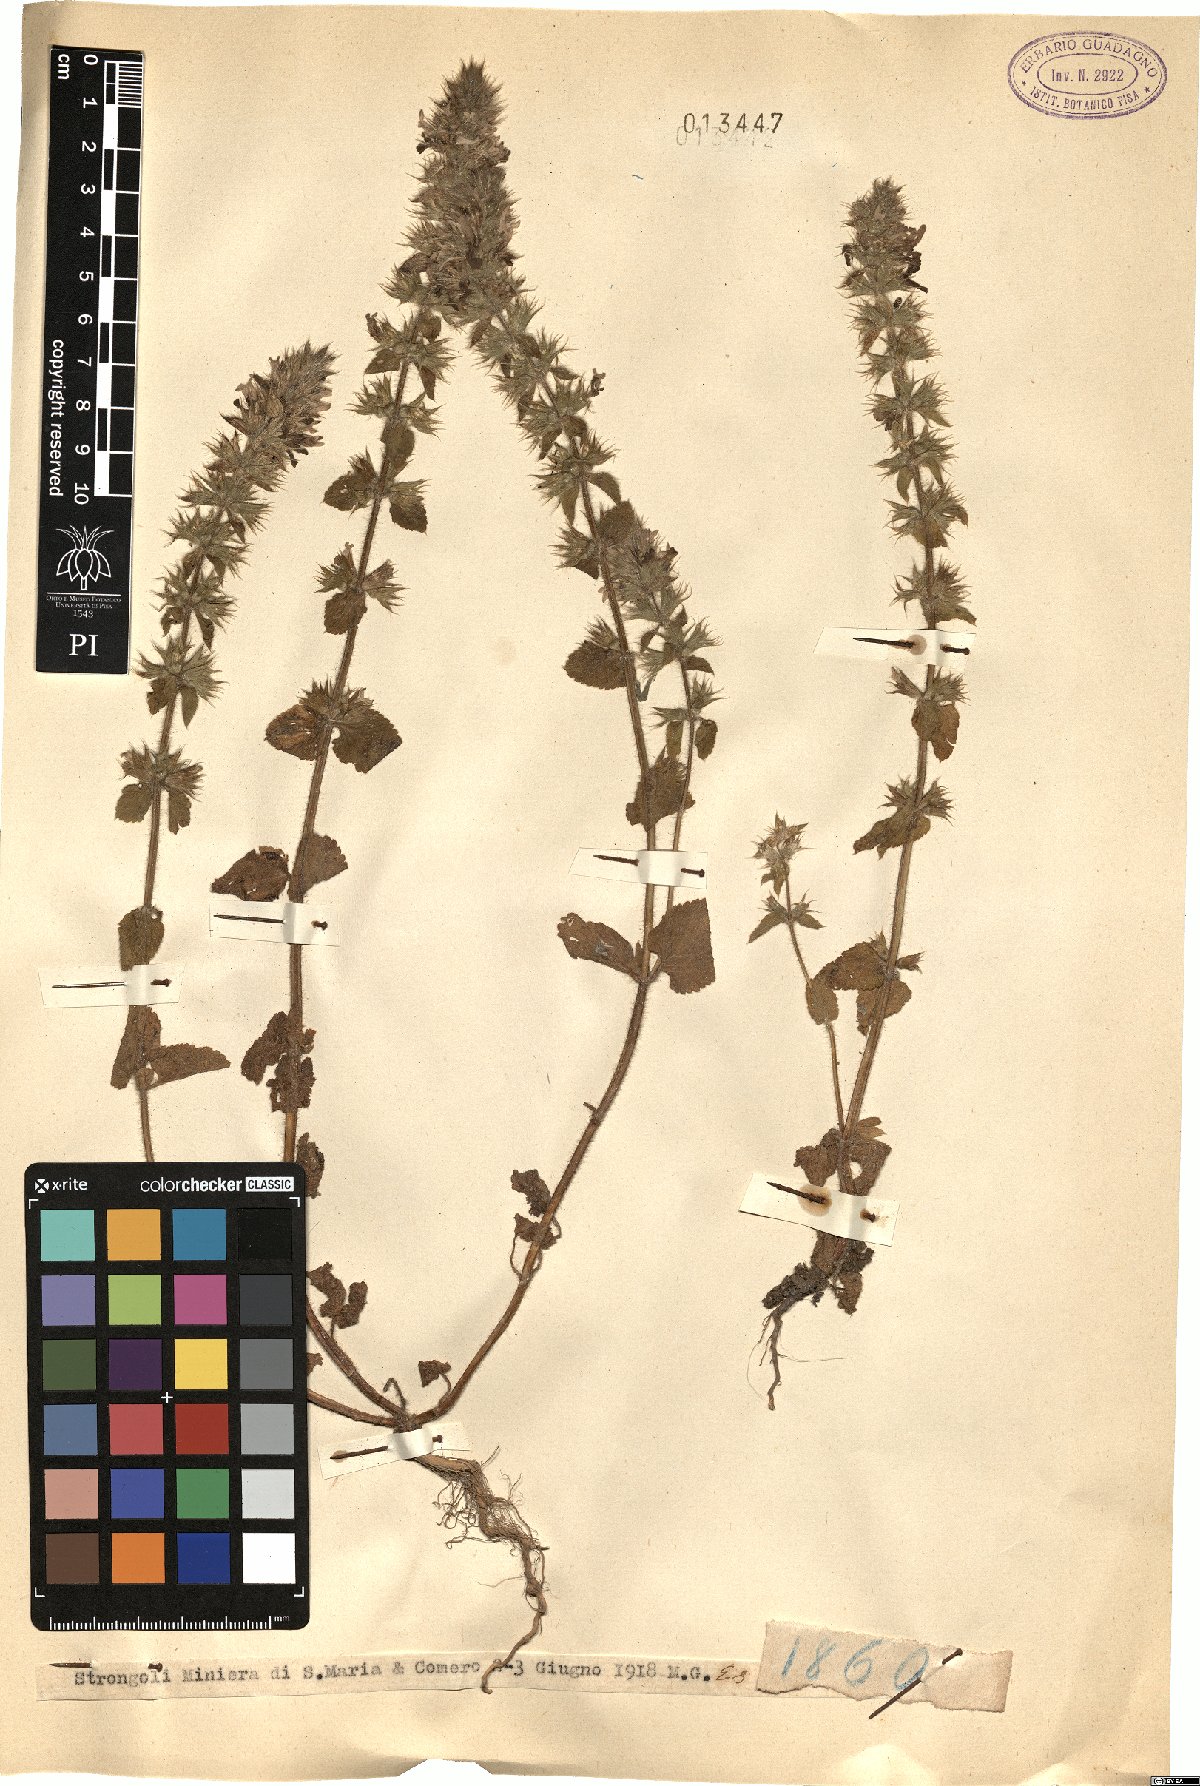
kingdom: Plantae
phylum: Tracheophyta
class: Magnoliopsida
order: Lamiales
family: Lamiaceae
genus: Stachys
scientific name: Stachys
